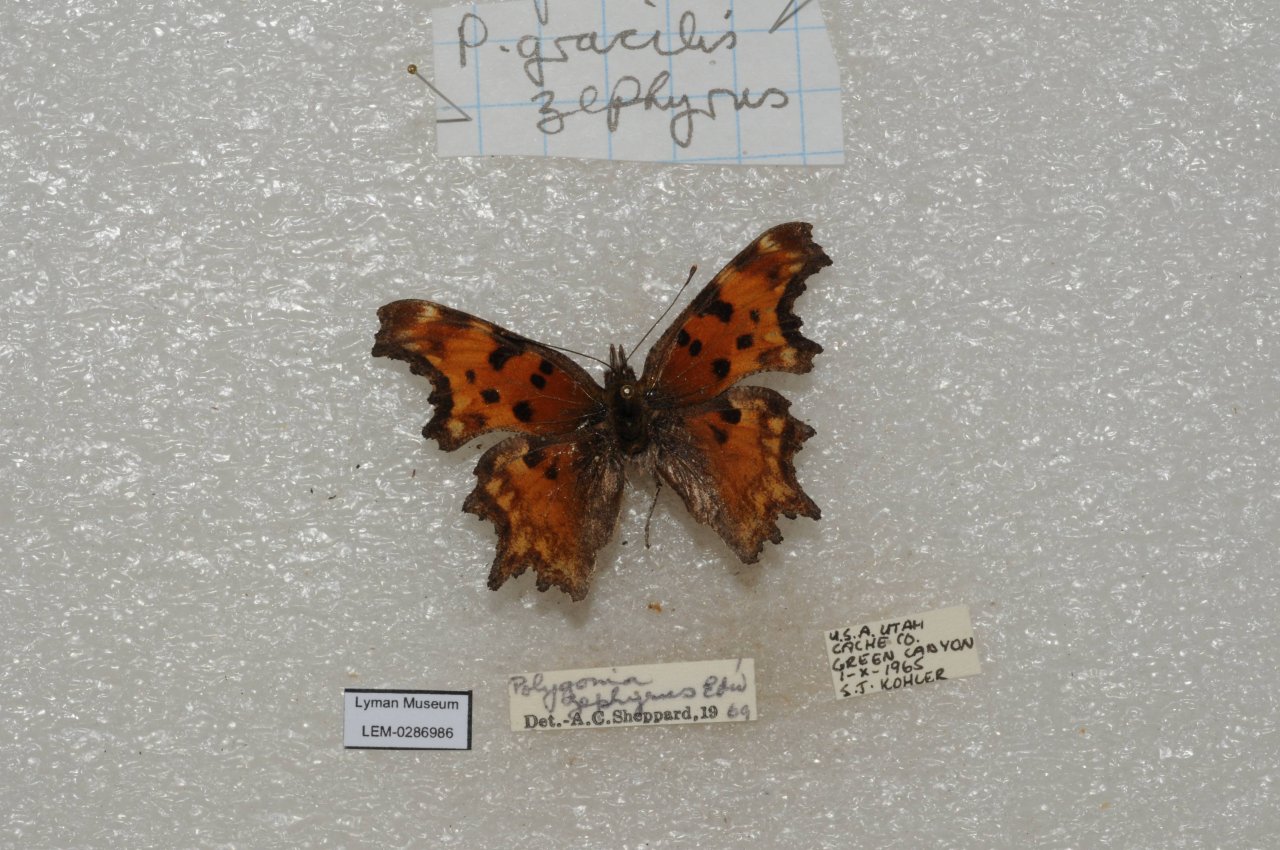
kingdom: Animalia
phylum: Arthropoda
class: Insecta
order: Lepidoptera
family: Nymphalidae
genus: Polygonia
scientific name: Polygonia gracilis
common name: Hoary Comma
